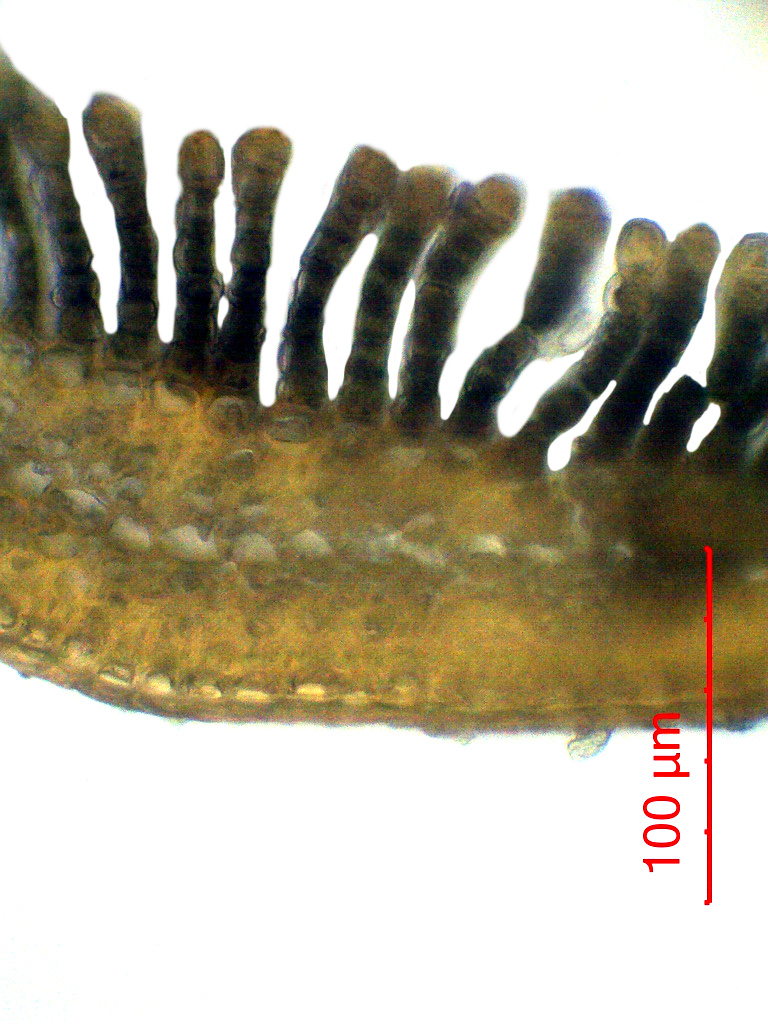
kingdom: Plantae
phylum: Bryophyta
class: Polytrichopsida
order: Polytrichales
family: Polytrichaceae
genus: Polytrichum
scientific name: Polytrichum commune
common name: Common haircap
